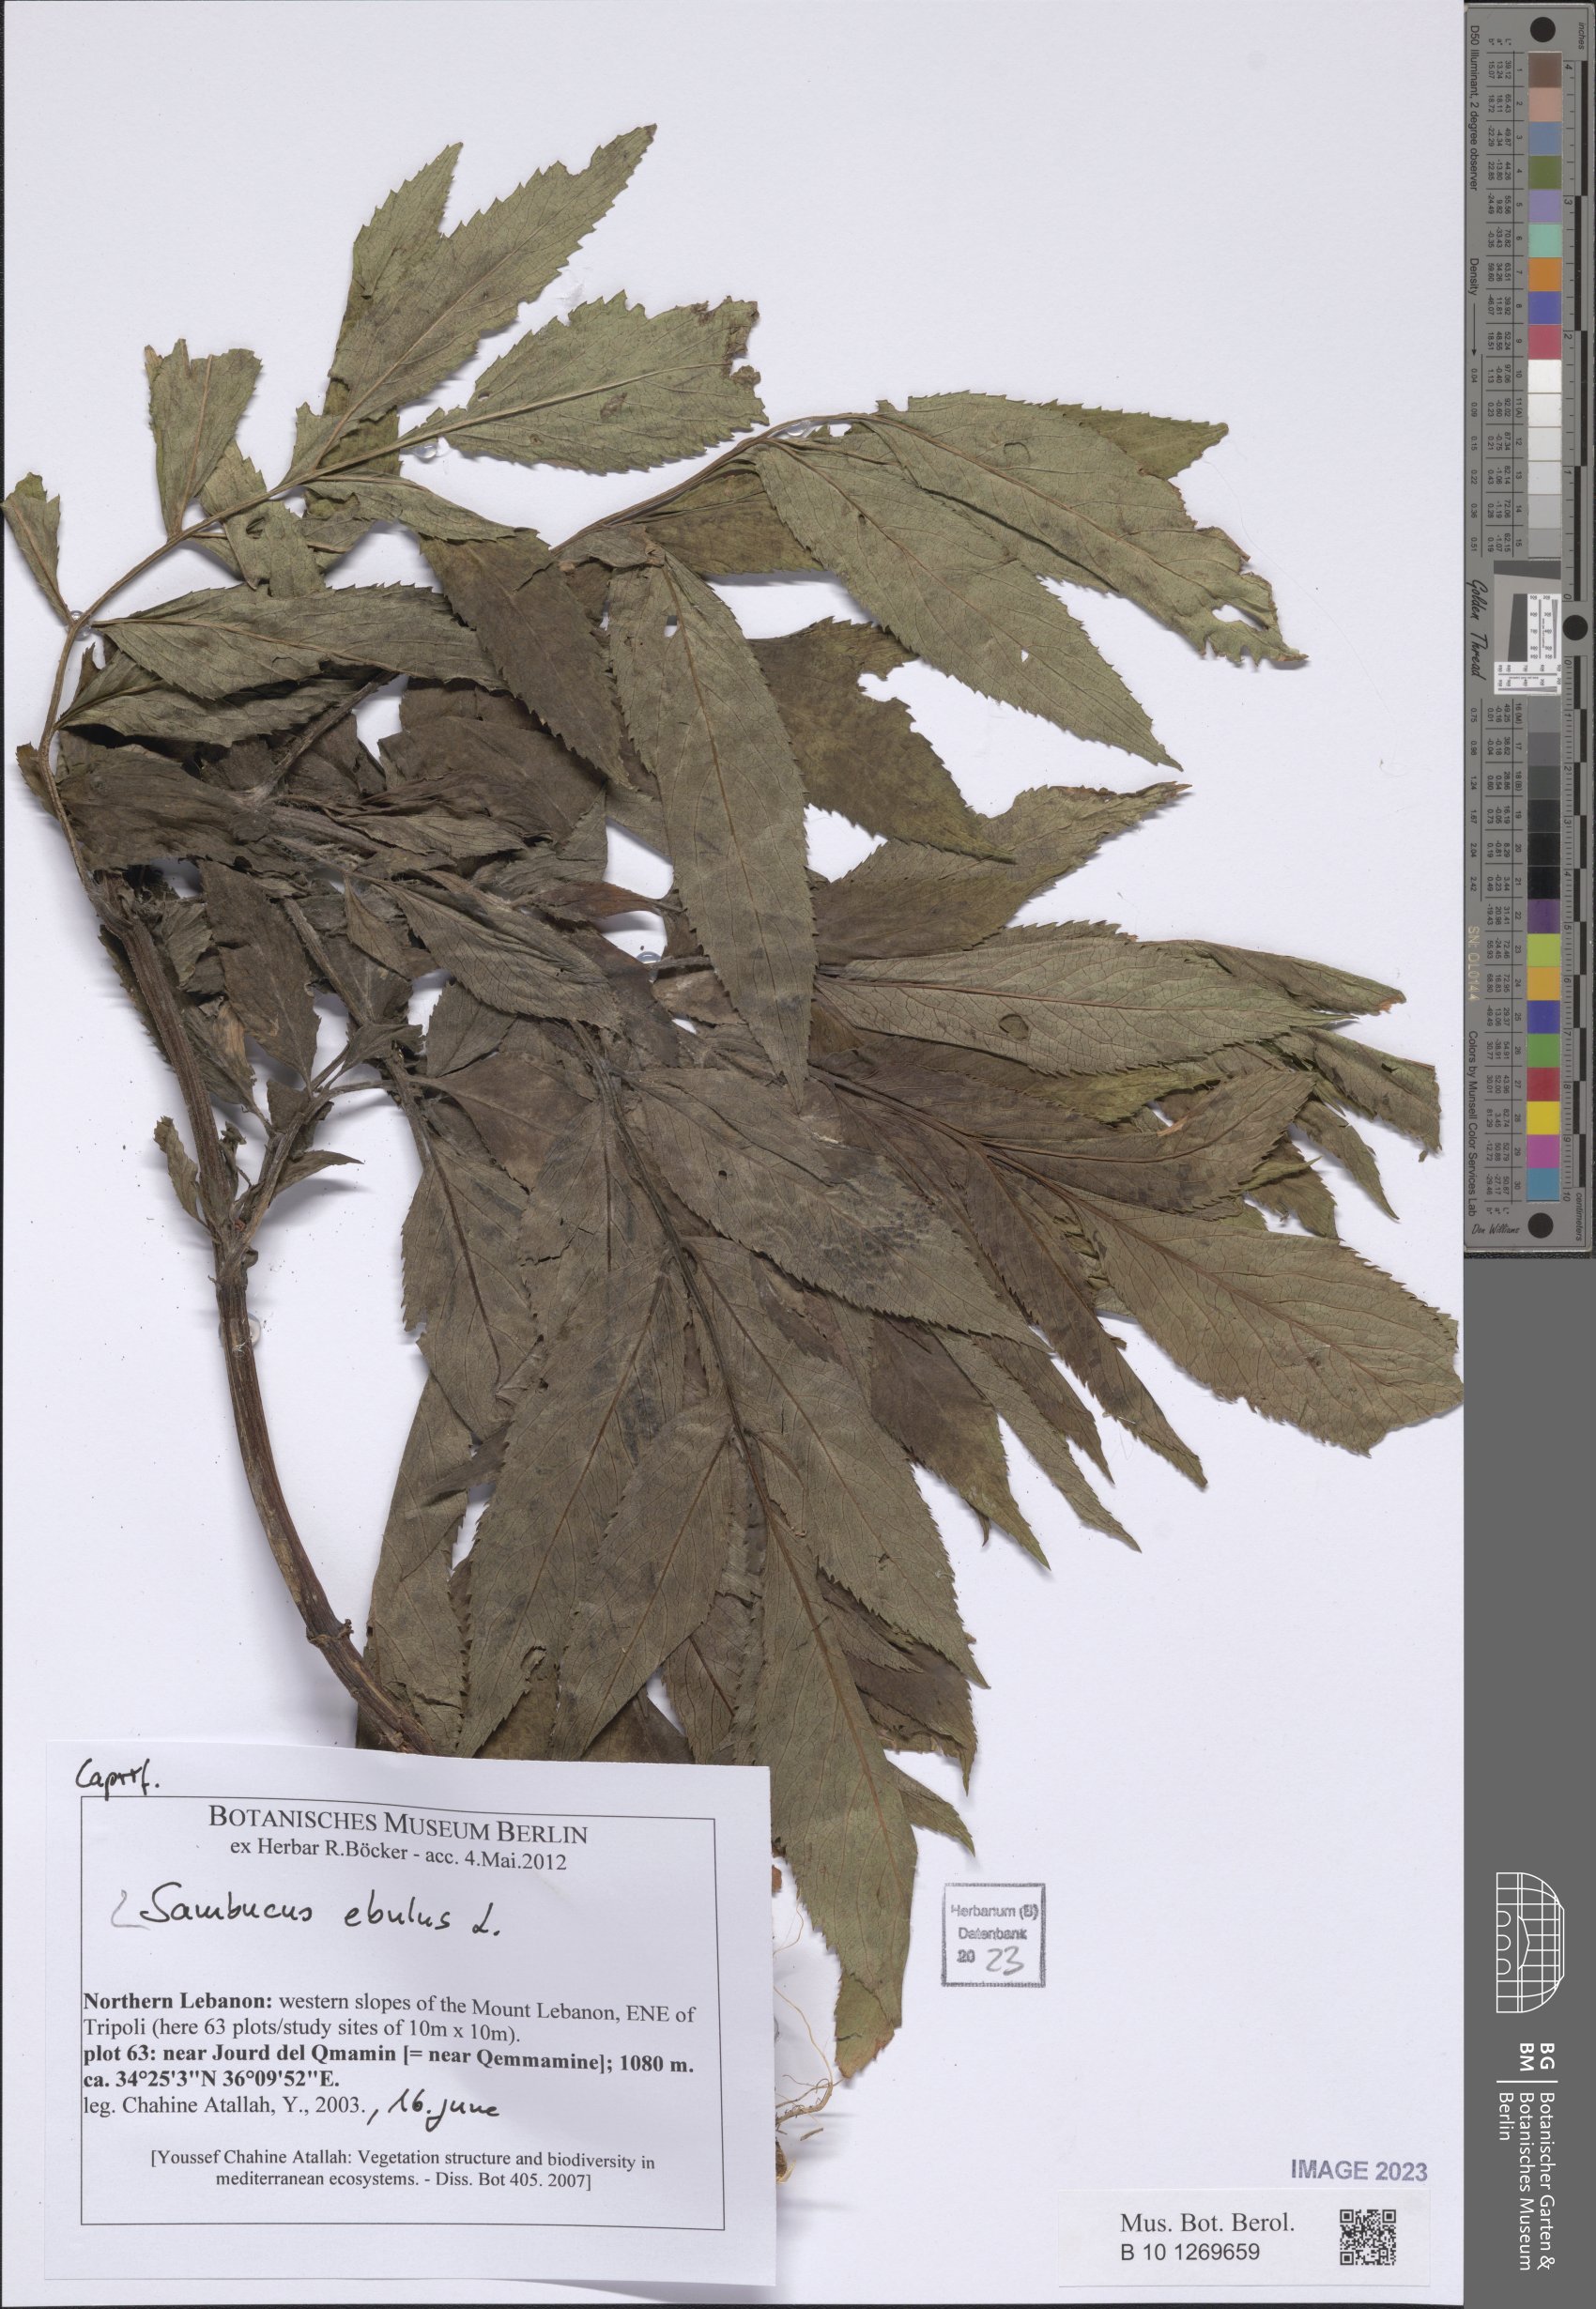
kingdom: Plantae
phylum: Tracheophyta
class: Magnoliopsida
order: Dipsacales
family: Viburnaceae
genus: Sambucus
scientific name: Sambucus ebulus
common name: Dwarf elder
